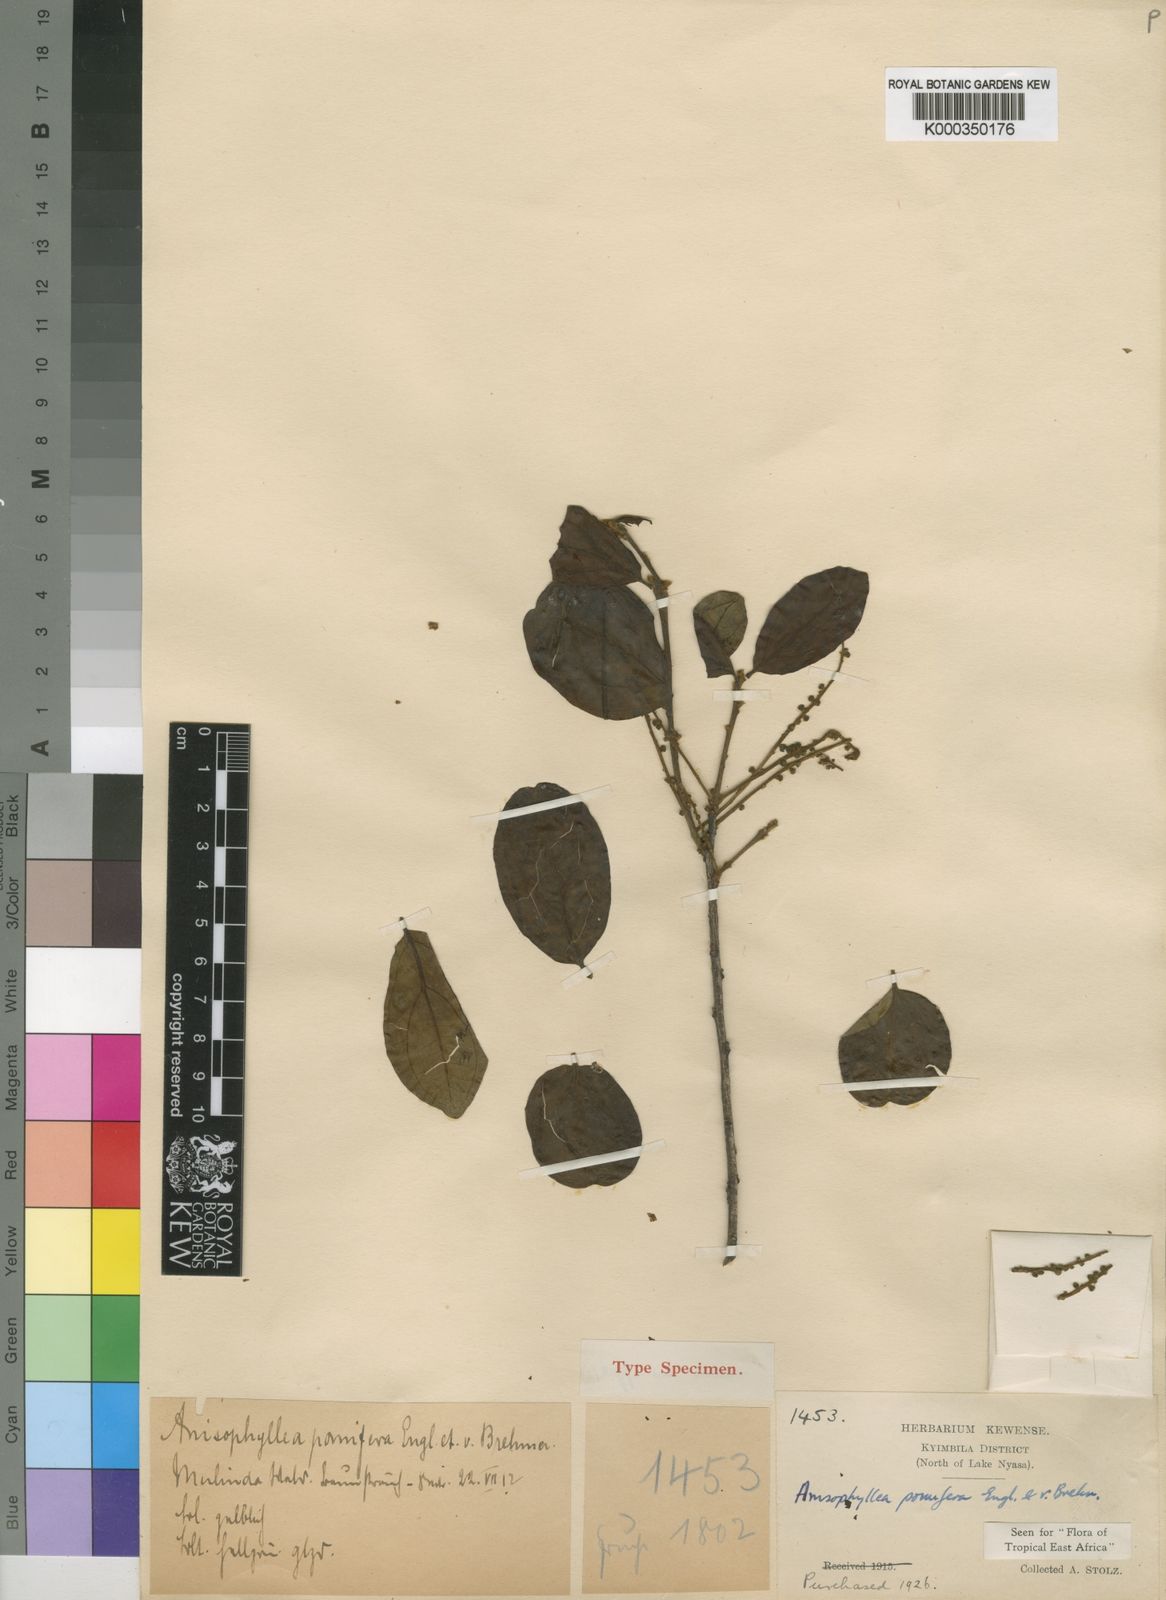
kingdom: Plantae
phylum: Tracheophyta
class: Magnoliopsida
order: Cucurbitales
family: Anisophylleaceae
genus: Anisophyllea
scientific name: Anisophyllea boehmii
